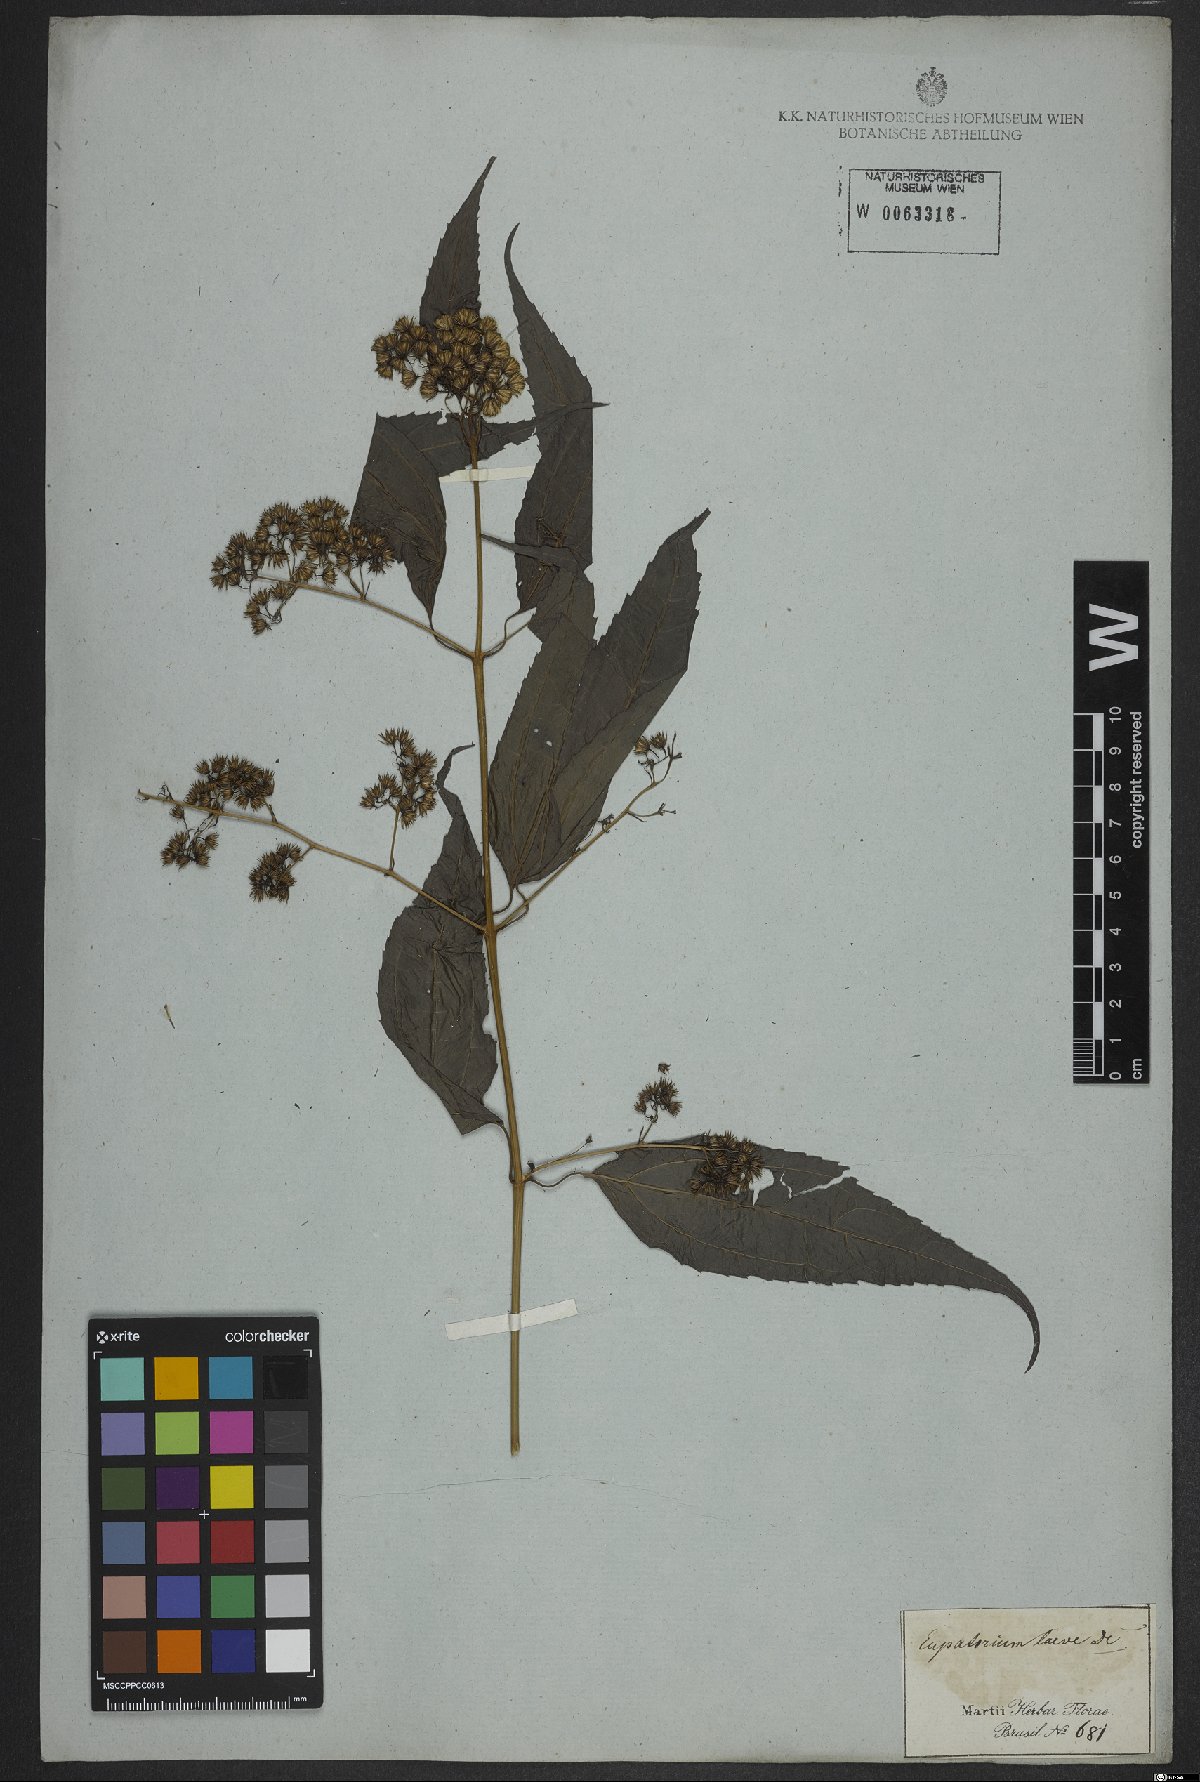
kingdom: Plantae
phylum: Tracheophyta
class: Magnoliopsida
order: Asterales
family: Asteraceae
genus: Koanophyllon
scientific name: Koanophyllon simillimum
